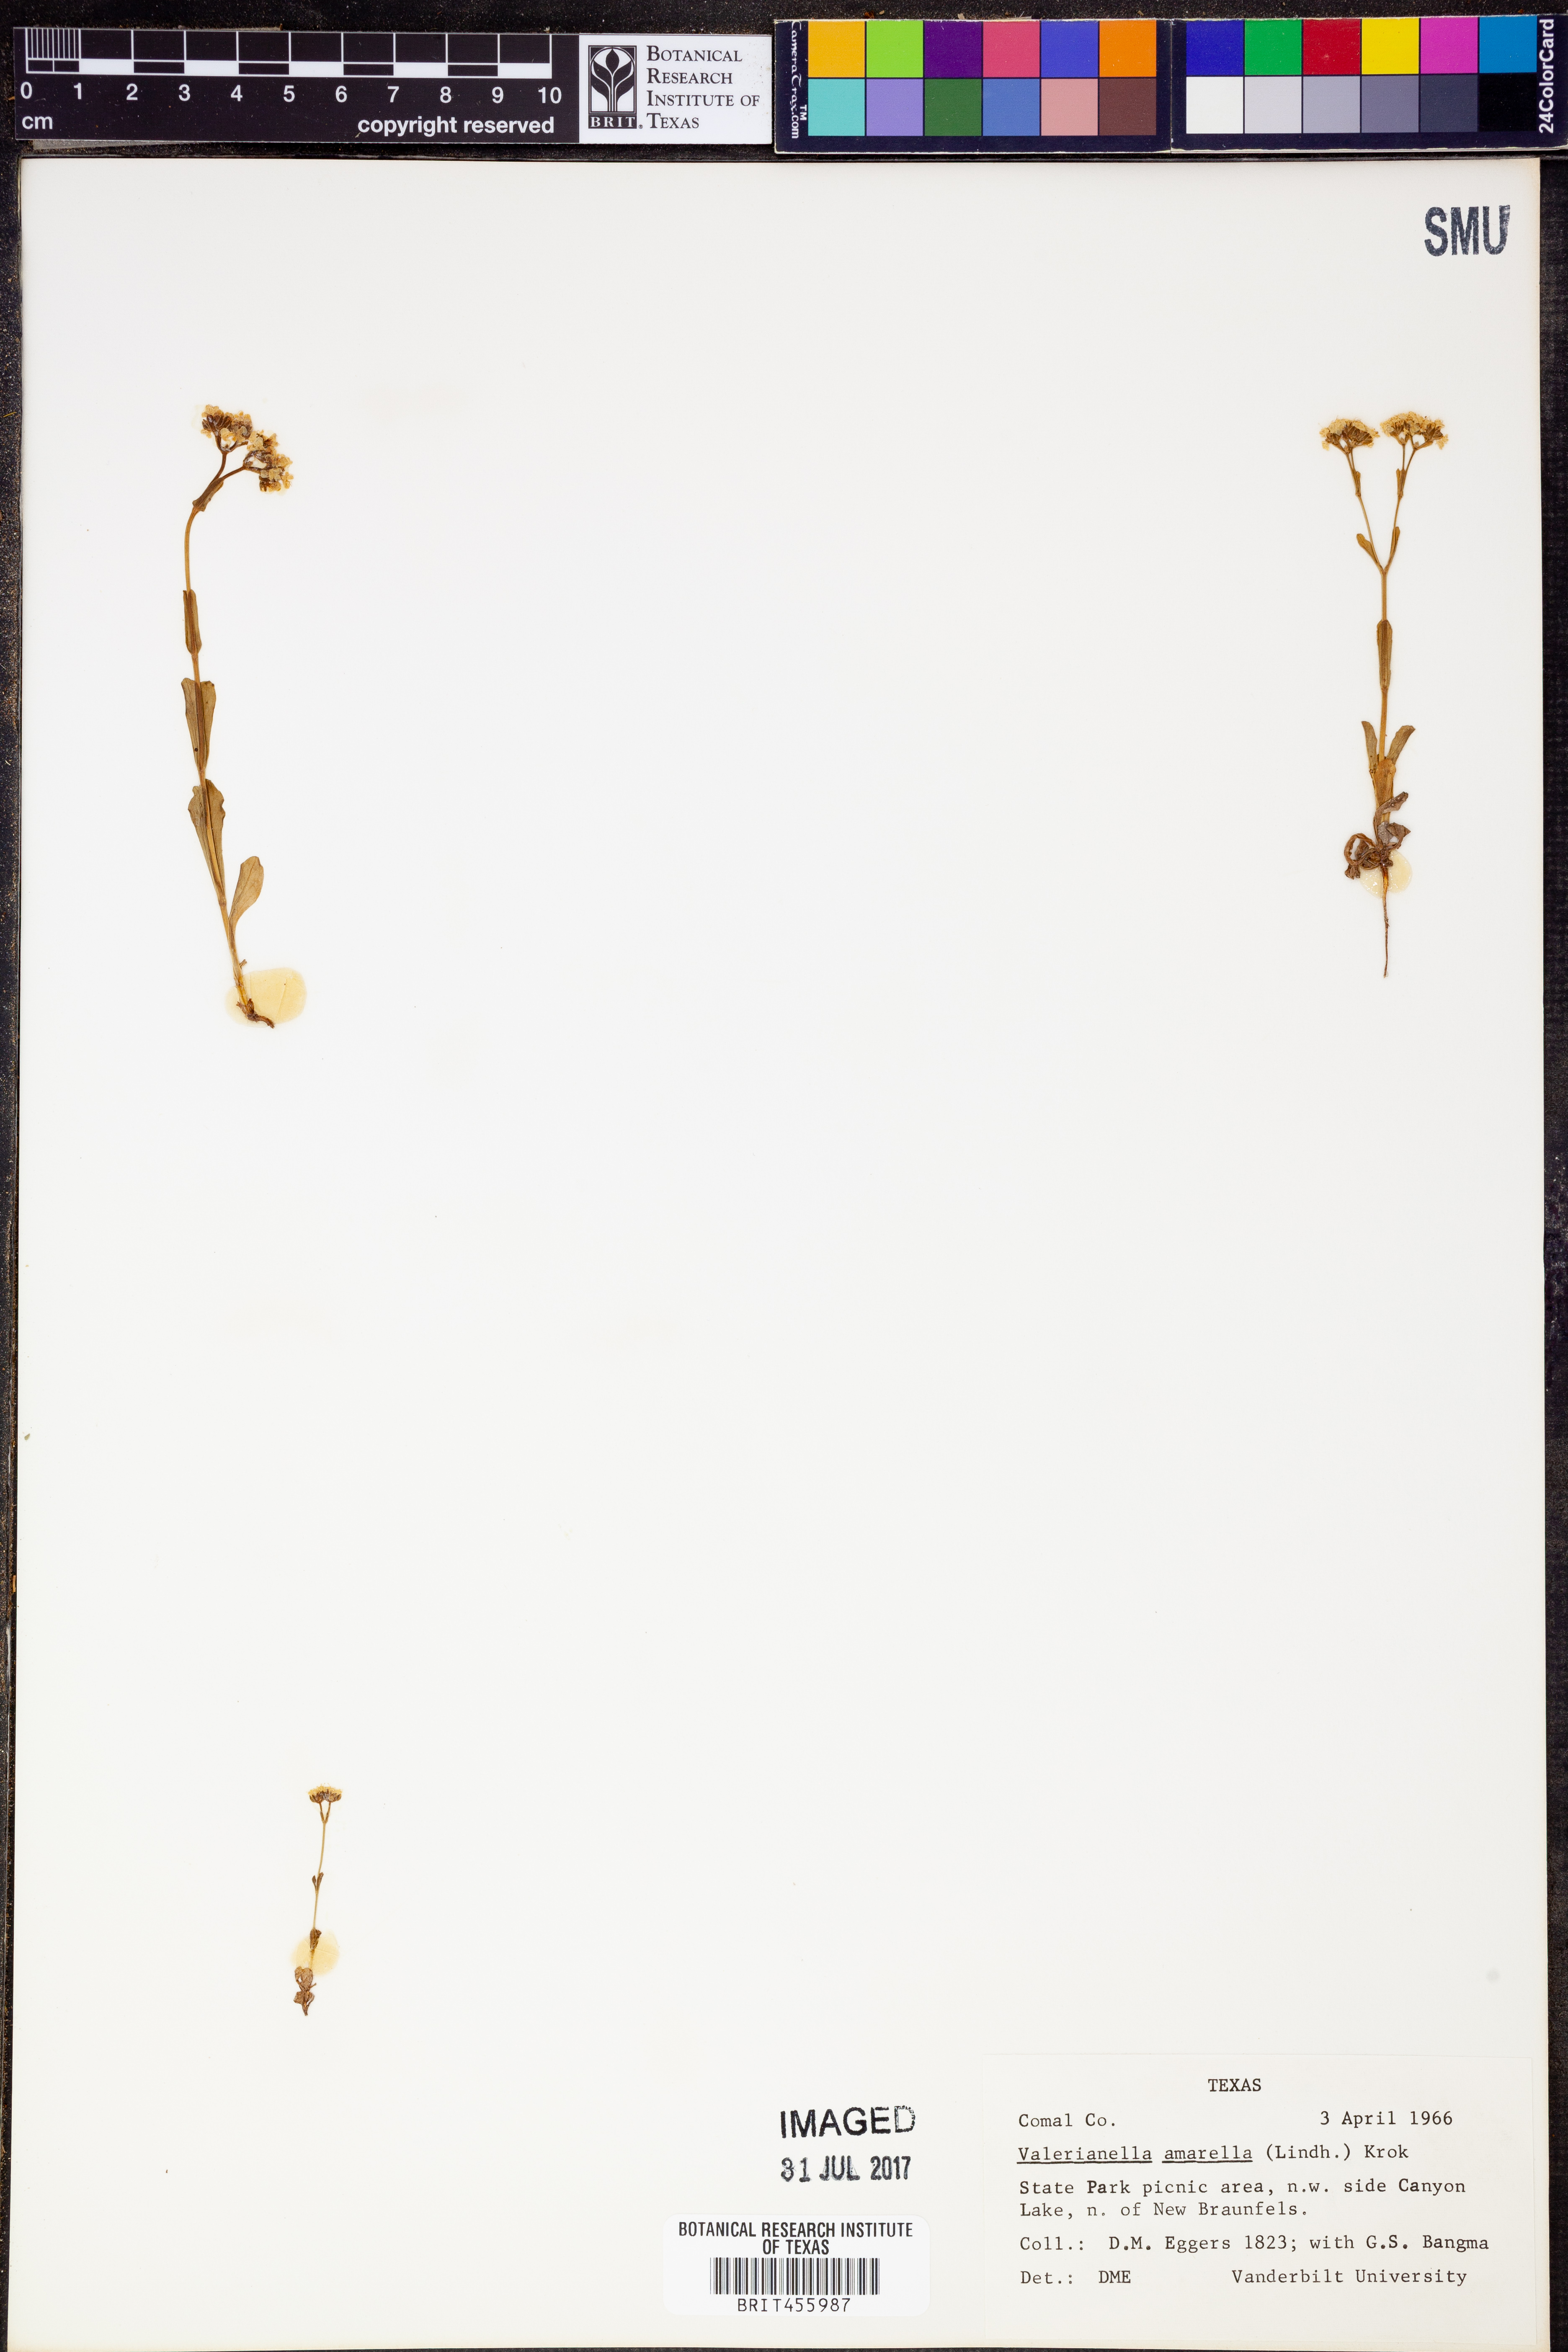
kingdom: Plantae
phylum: Tracheophyta
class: Magnoliopsida
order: Dipsacales
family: Caprifoliaceae
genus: Valerianella
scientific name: Valerianella amarella
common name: Hariy cornsalad
